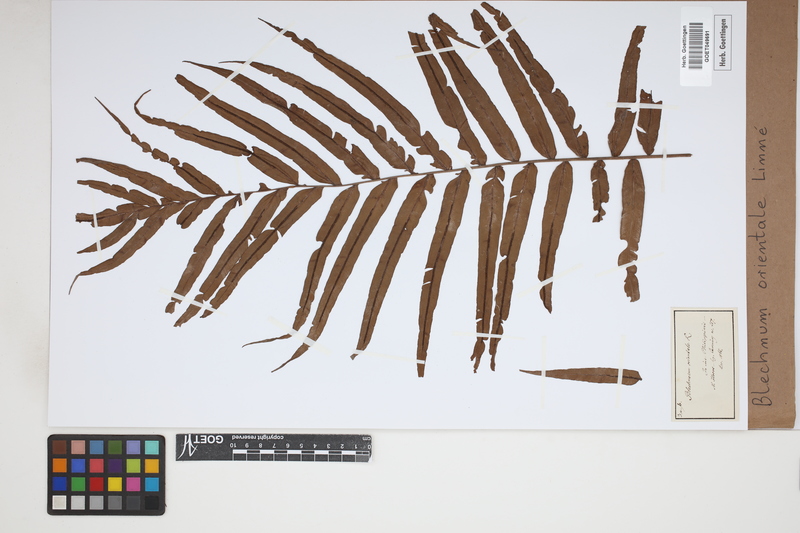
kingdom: Plantae
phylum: Tracheophyta
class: Polypodiopsida
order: Polypodiales
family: Blechnaceae
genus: Blechnopsis
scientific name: Blechnopsis orientalis
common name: Oriental blechnum
